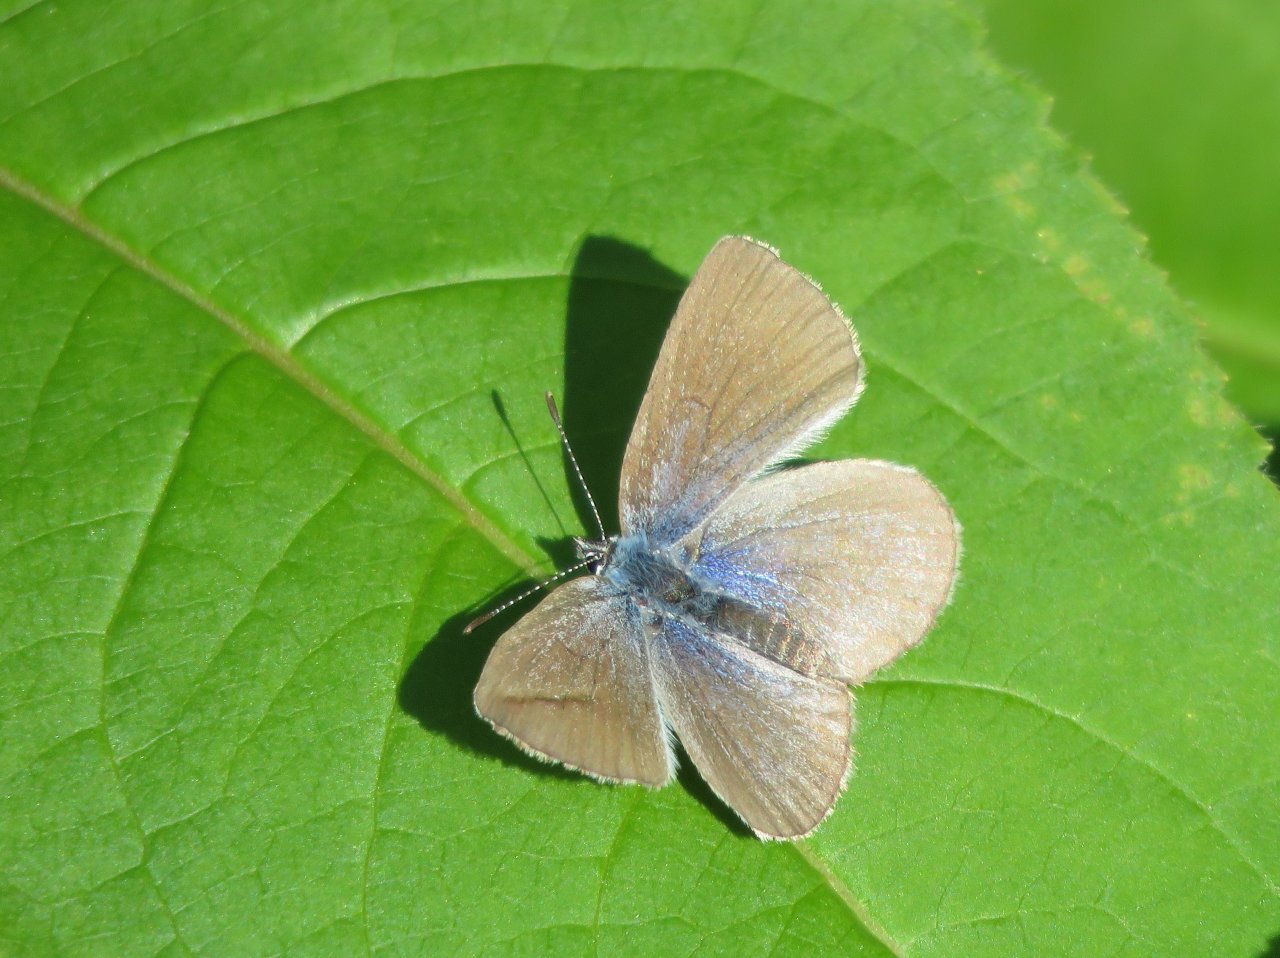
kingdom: Animalia
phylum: Arthropoda
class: Insecta
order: Lepidoptera
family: Lycaenidae
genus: Glaucopsyche
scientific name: Glaucopsyche lygdamus
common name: Silvery Blue
